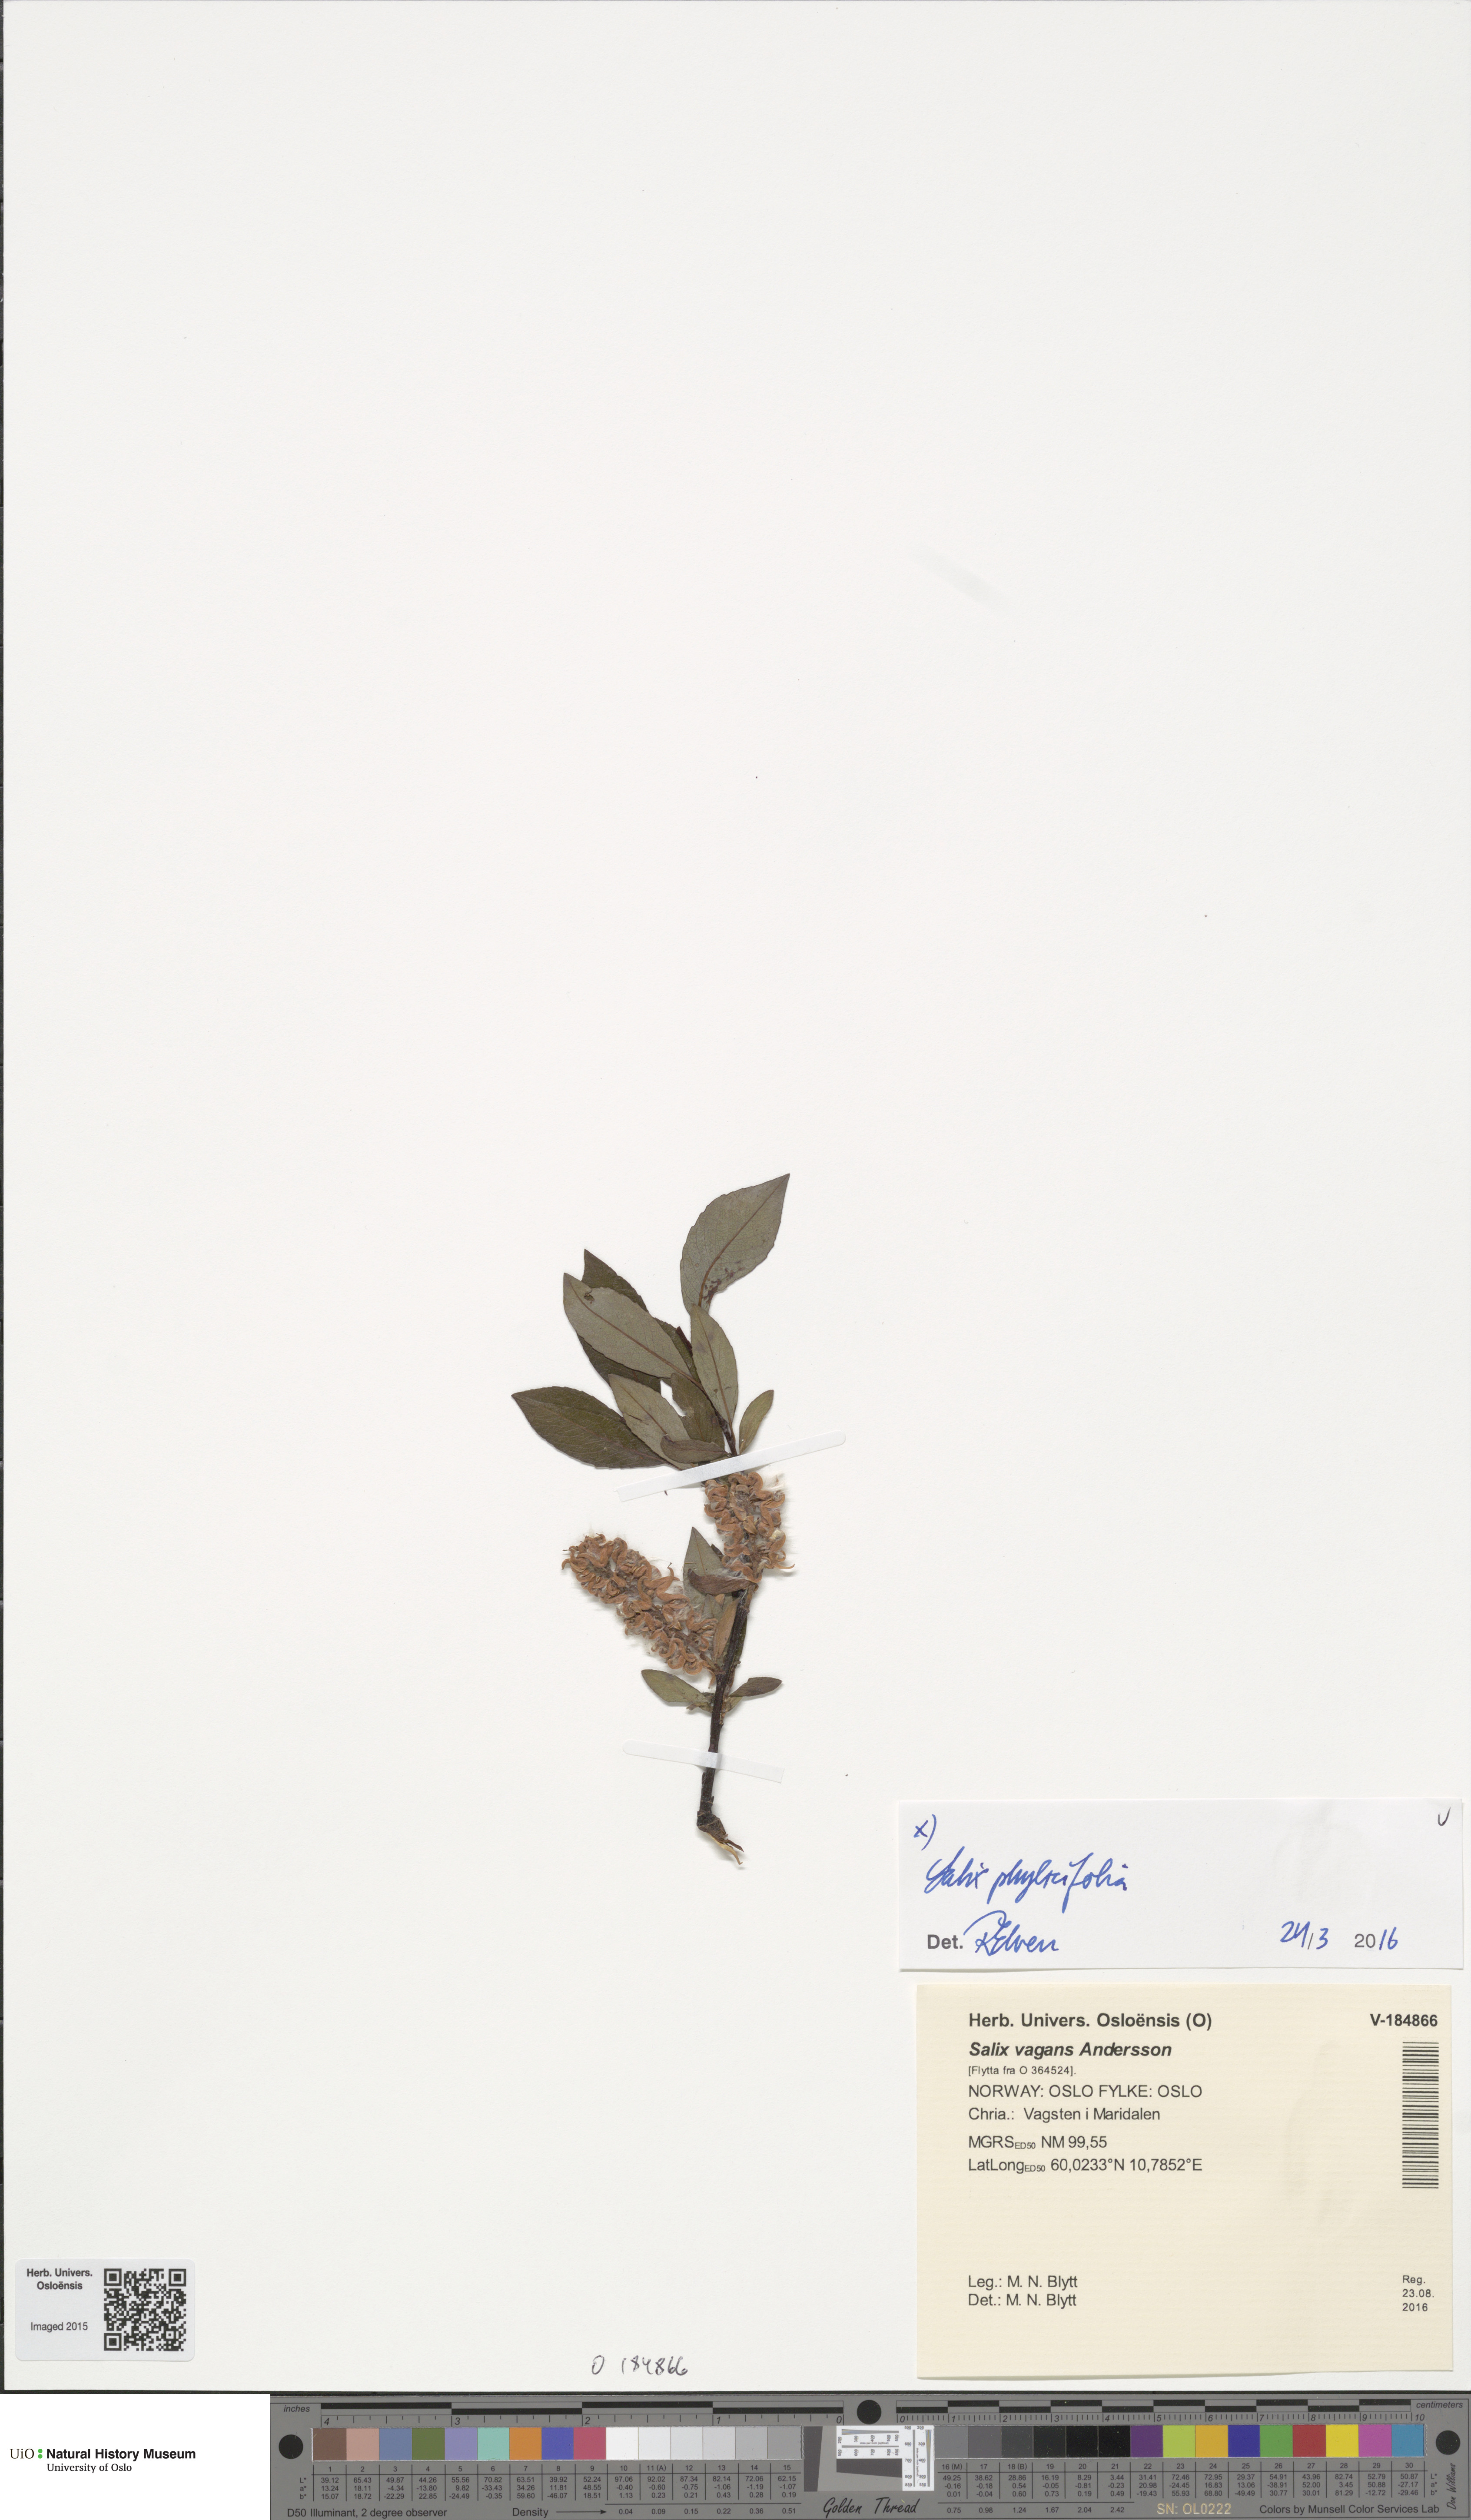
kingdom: Plantae
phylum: Tracheophyta
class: Magnoliopsida
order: Malpighiales
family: Salicaceae
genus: Salix
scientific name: Salix phylicifolia
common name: Tea-leaved willow
